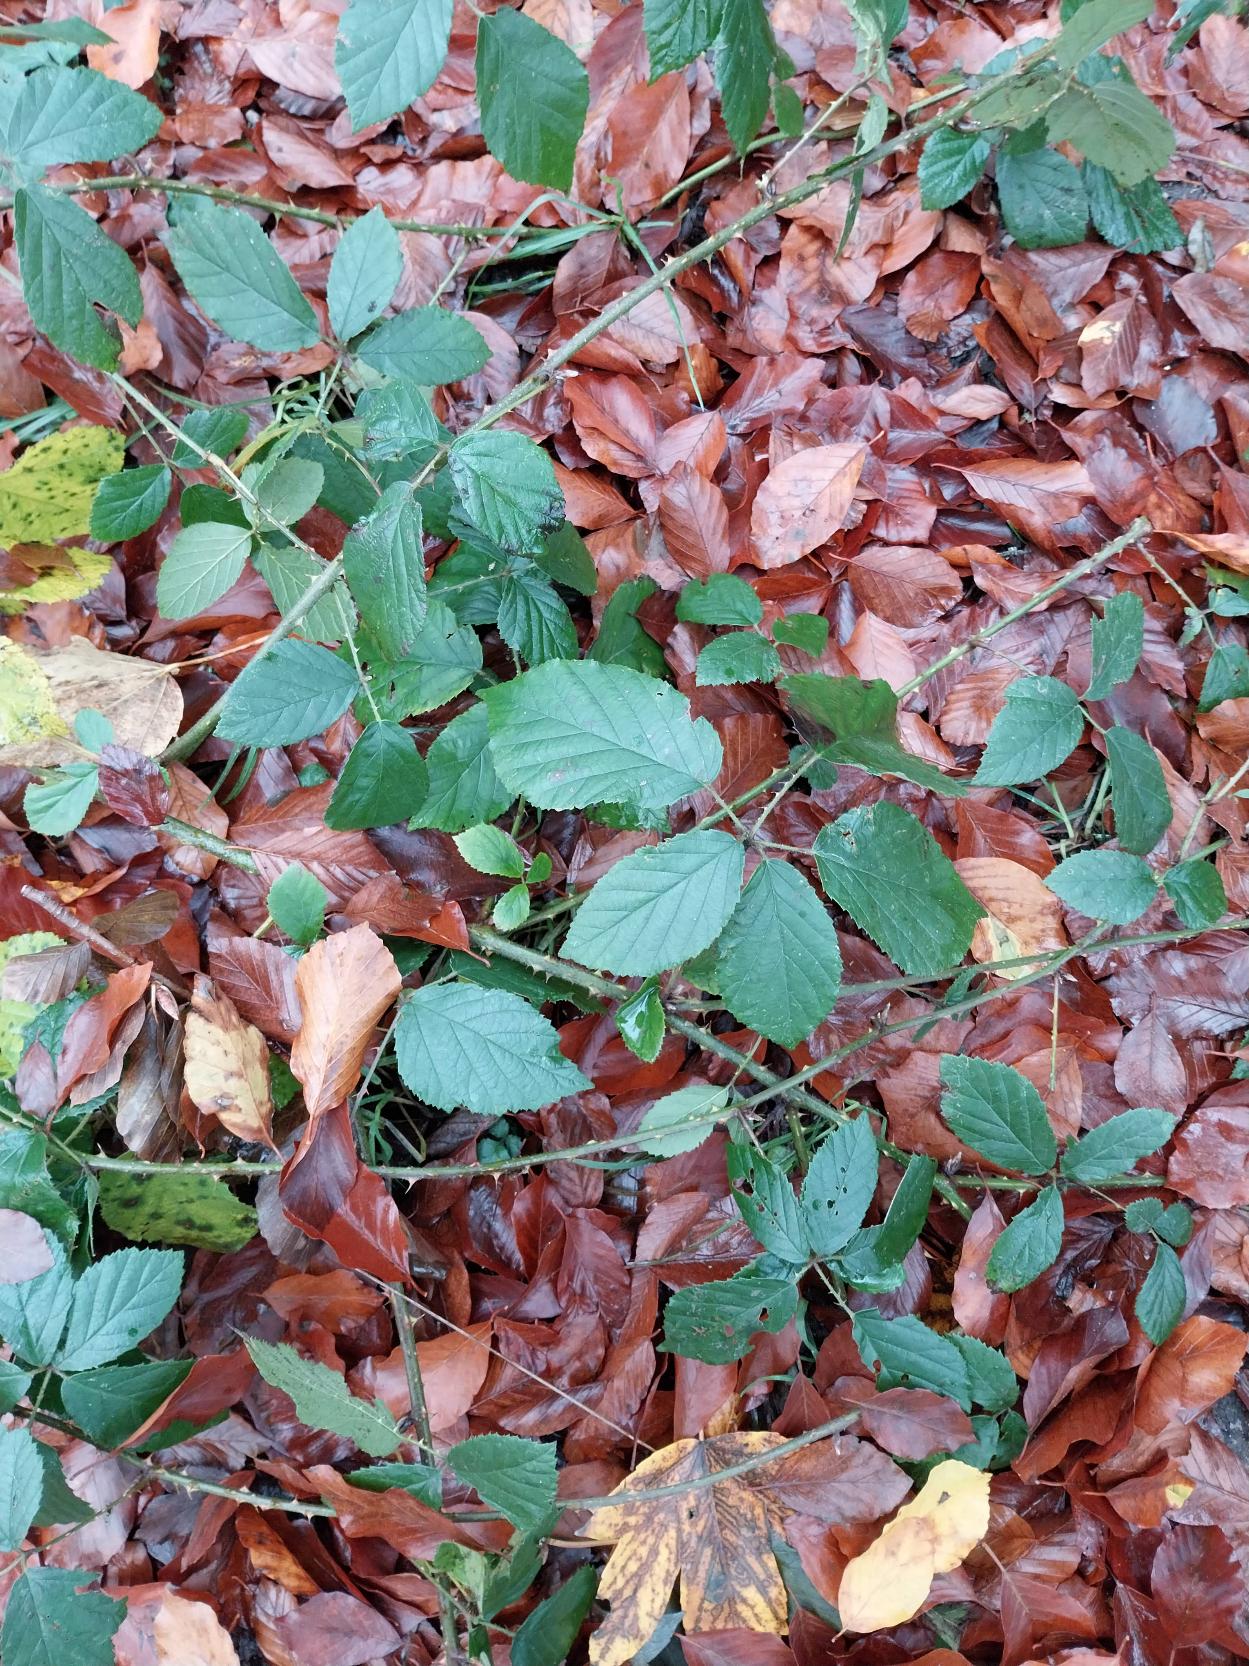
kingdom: Plantae
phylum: Tracheophyta
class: Magnoliopsida
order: Rosales
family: Rosaceae
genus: Rubus
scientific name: Rubus radula
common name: Rasperu brombær
